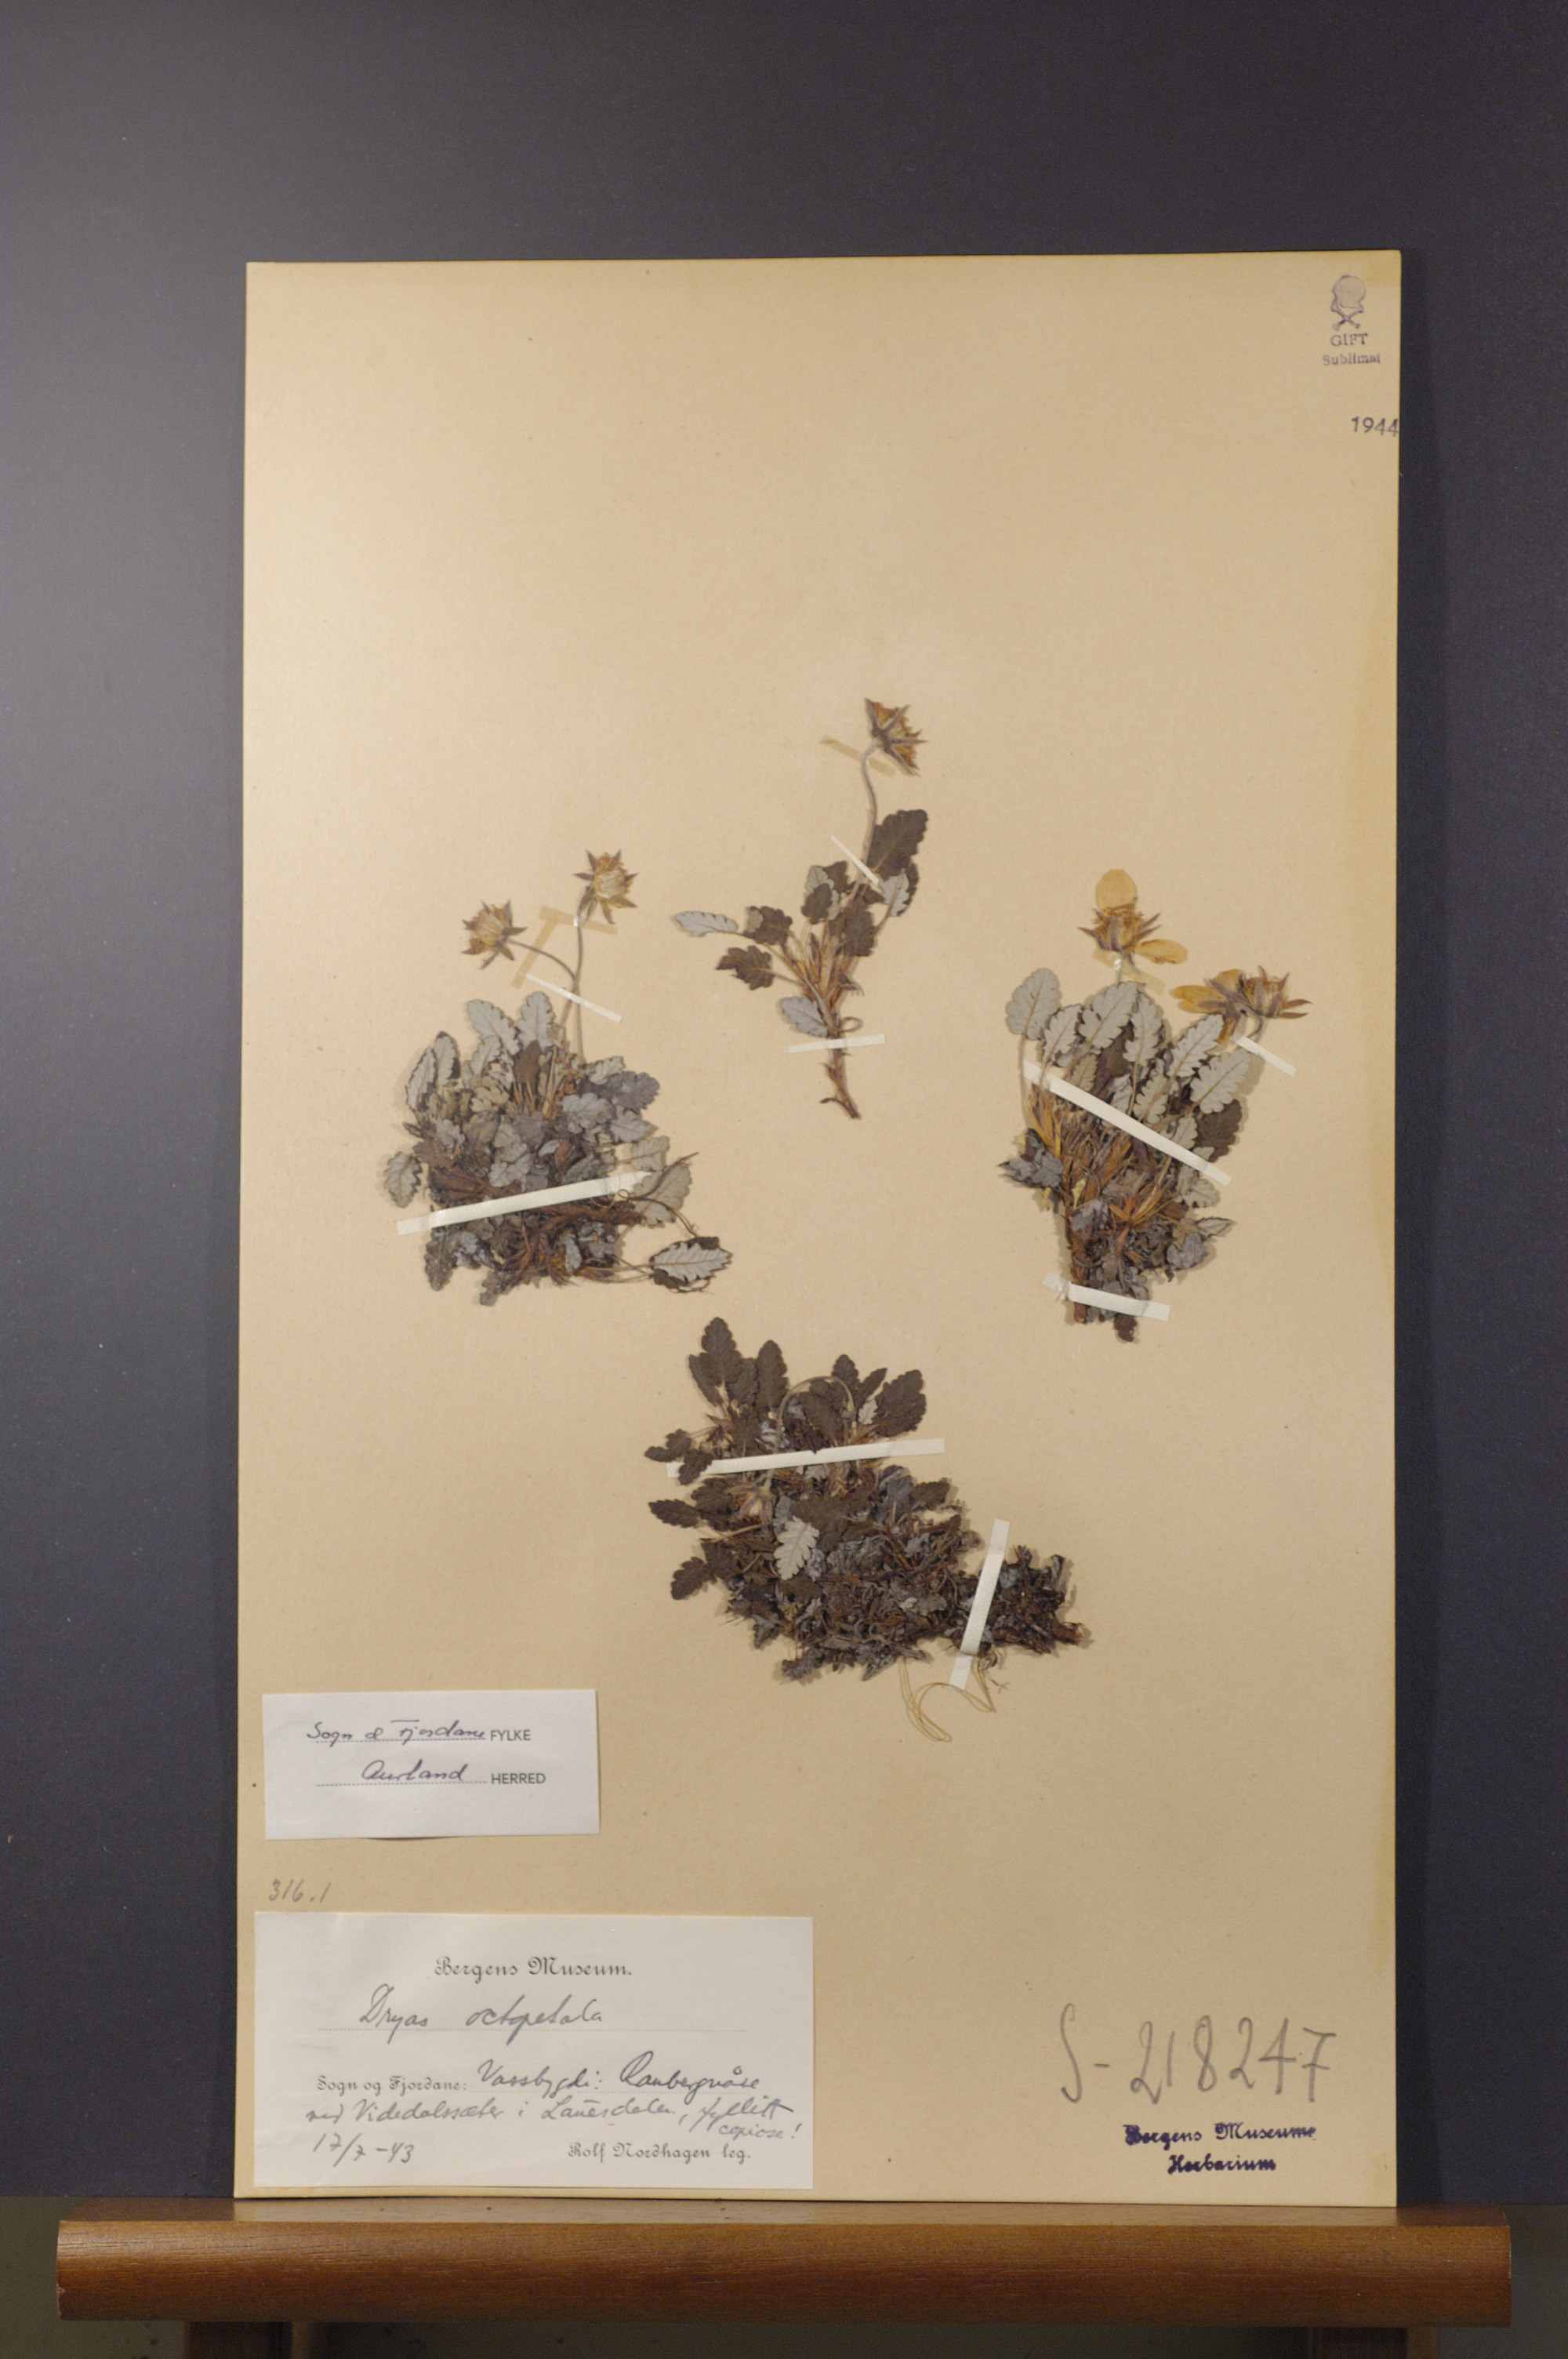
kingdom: Plantae
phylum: Tracheophyta
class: Magnoliopsida
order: Rosales
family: Rosaceae
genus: Dryas
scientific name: Dryas octopetala
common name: Eight-petal mountain-avens
